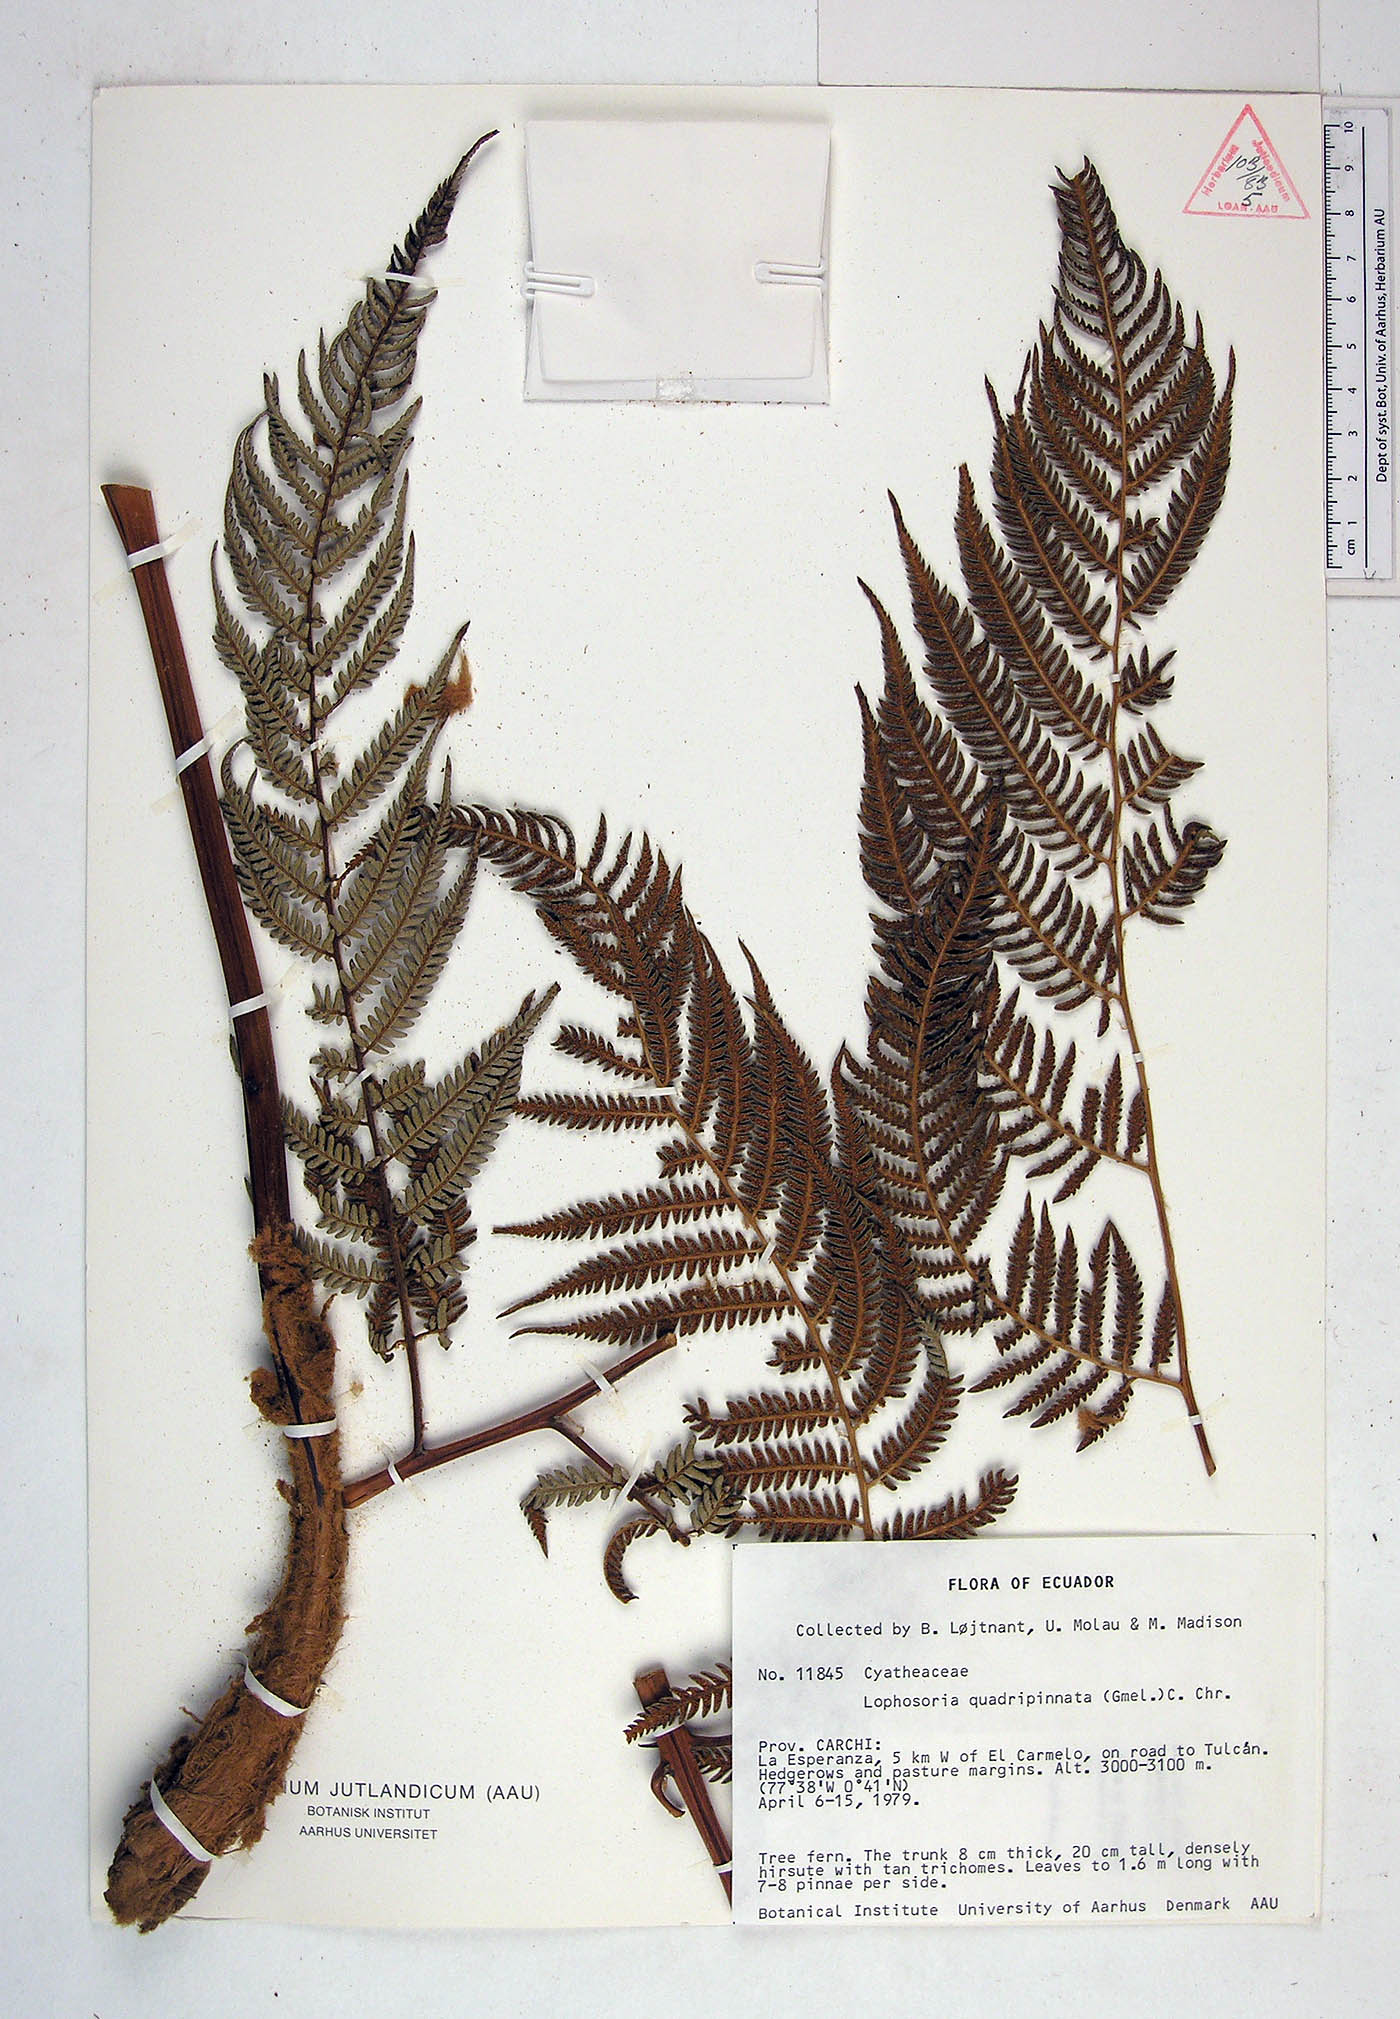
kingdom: Plantae
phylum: Tracheophyta
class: Polypodiopsida
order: Cyatheales
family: Dicksoniaceae
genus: Lophosoria
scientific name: Lophosoria quadripinnata
